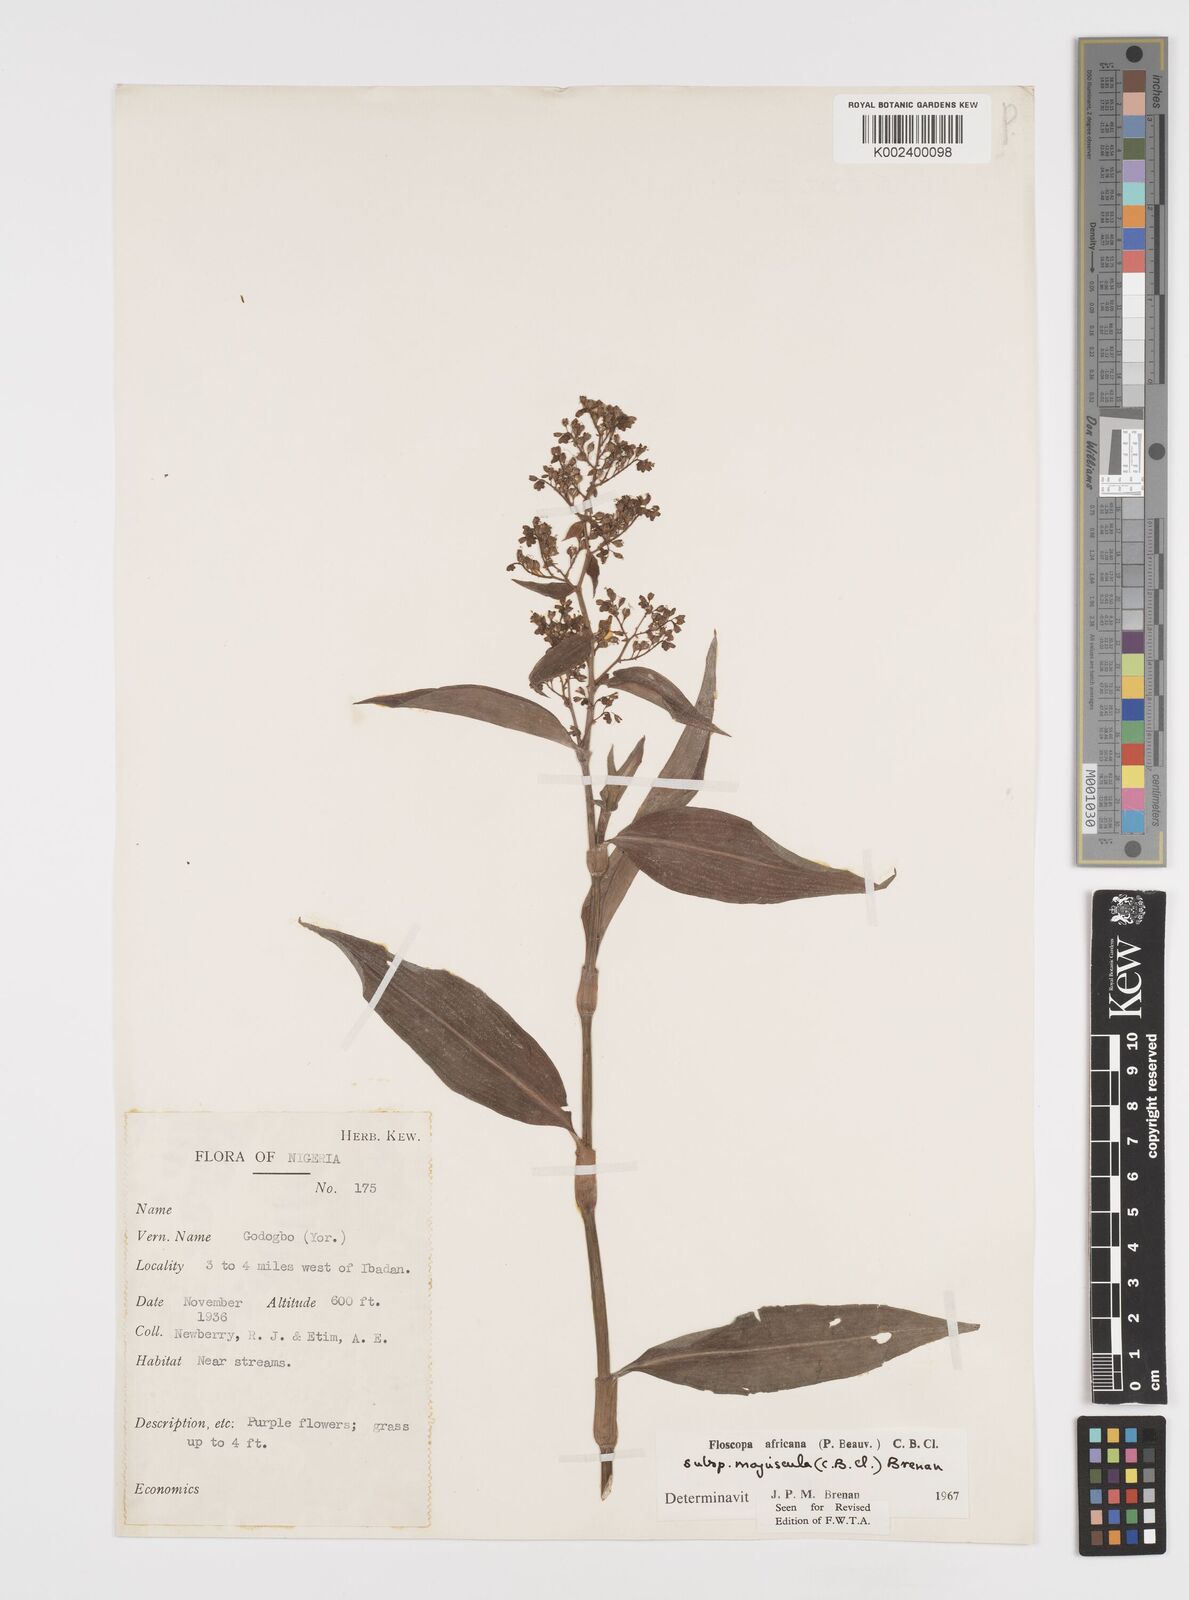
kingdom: Plantae
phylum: Tracheophyta
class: Liliopsida
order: Commelinales
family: Commelinaceae
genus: Floscopa
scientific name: Floscopa africana
